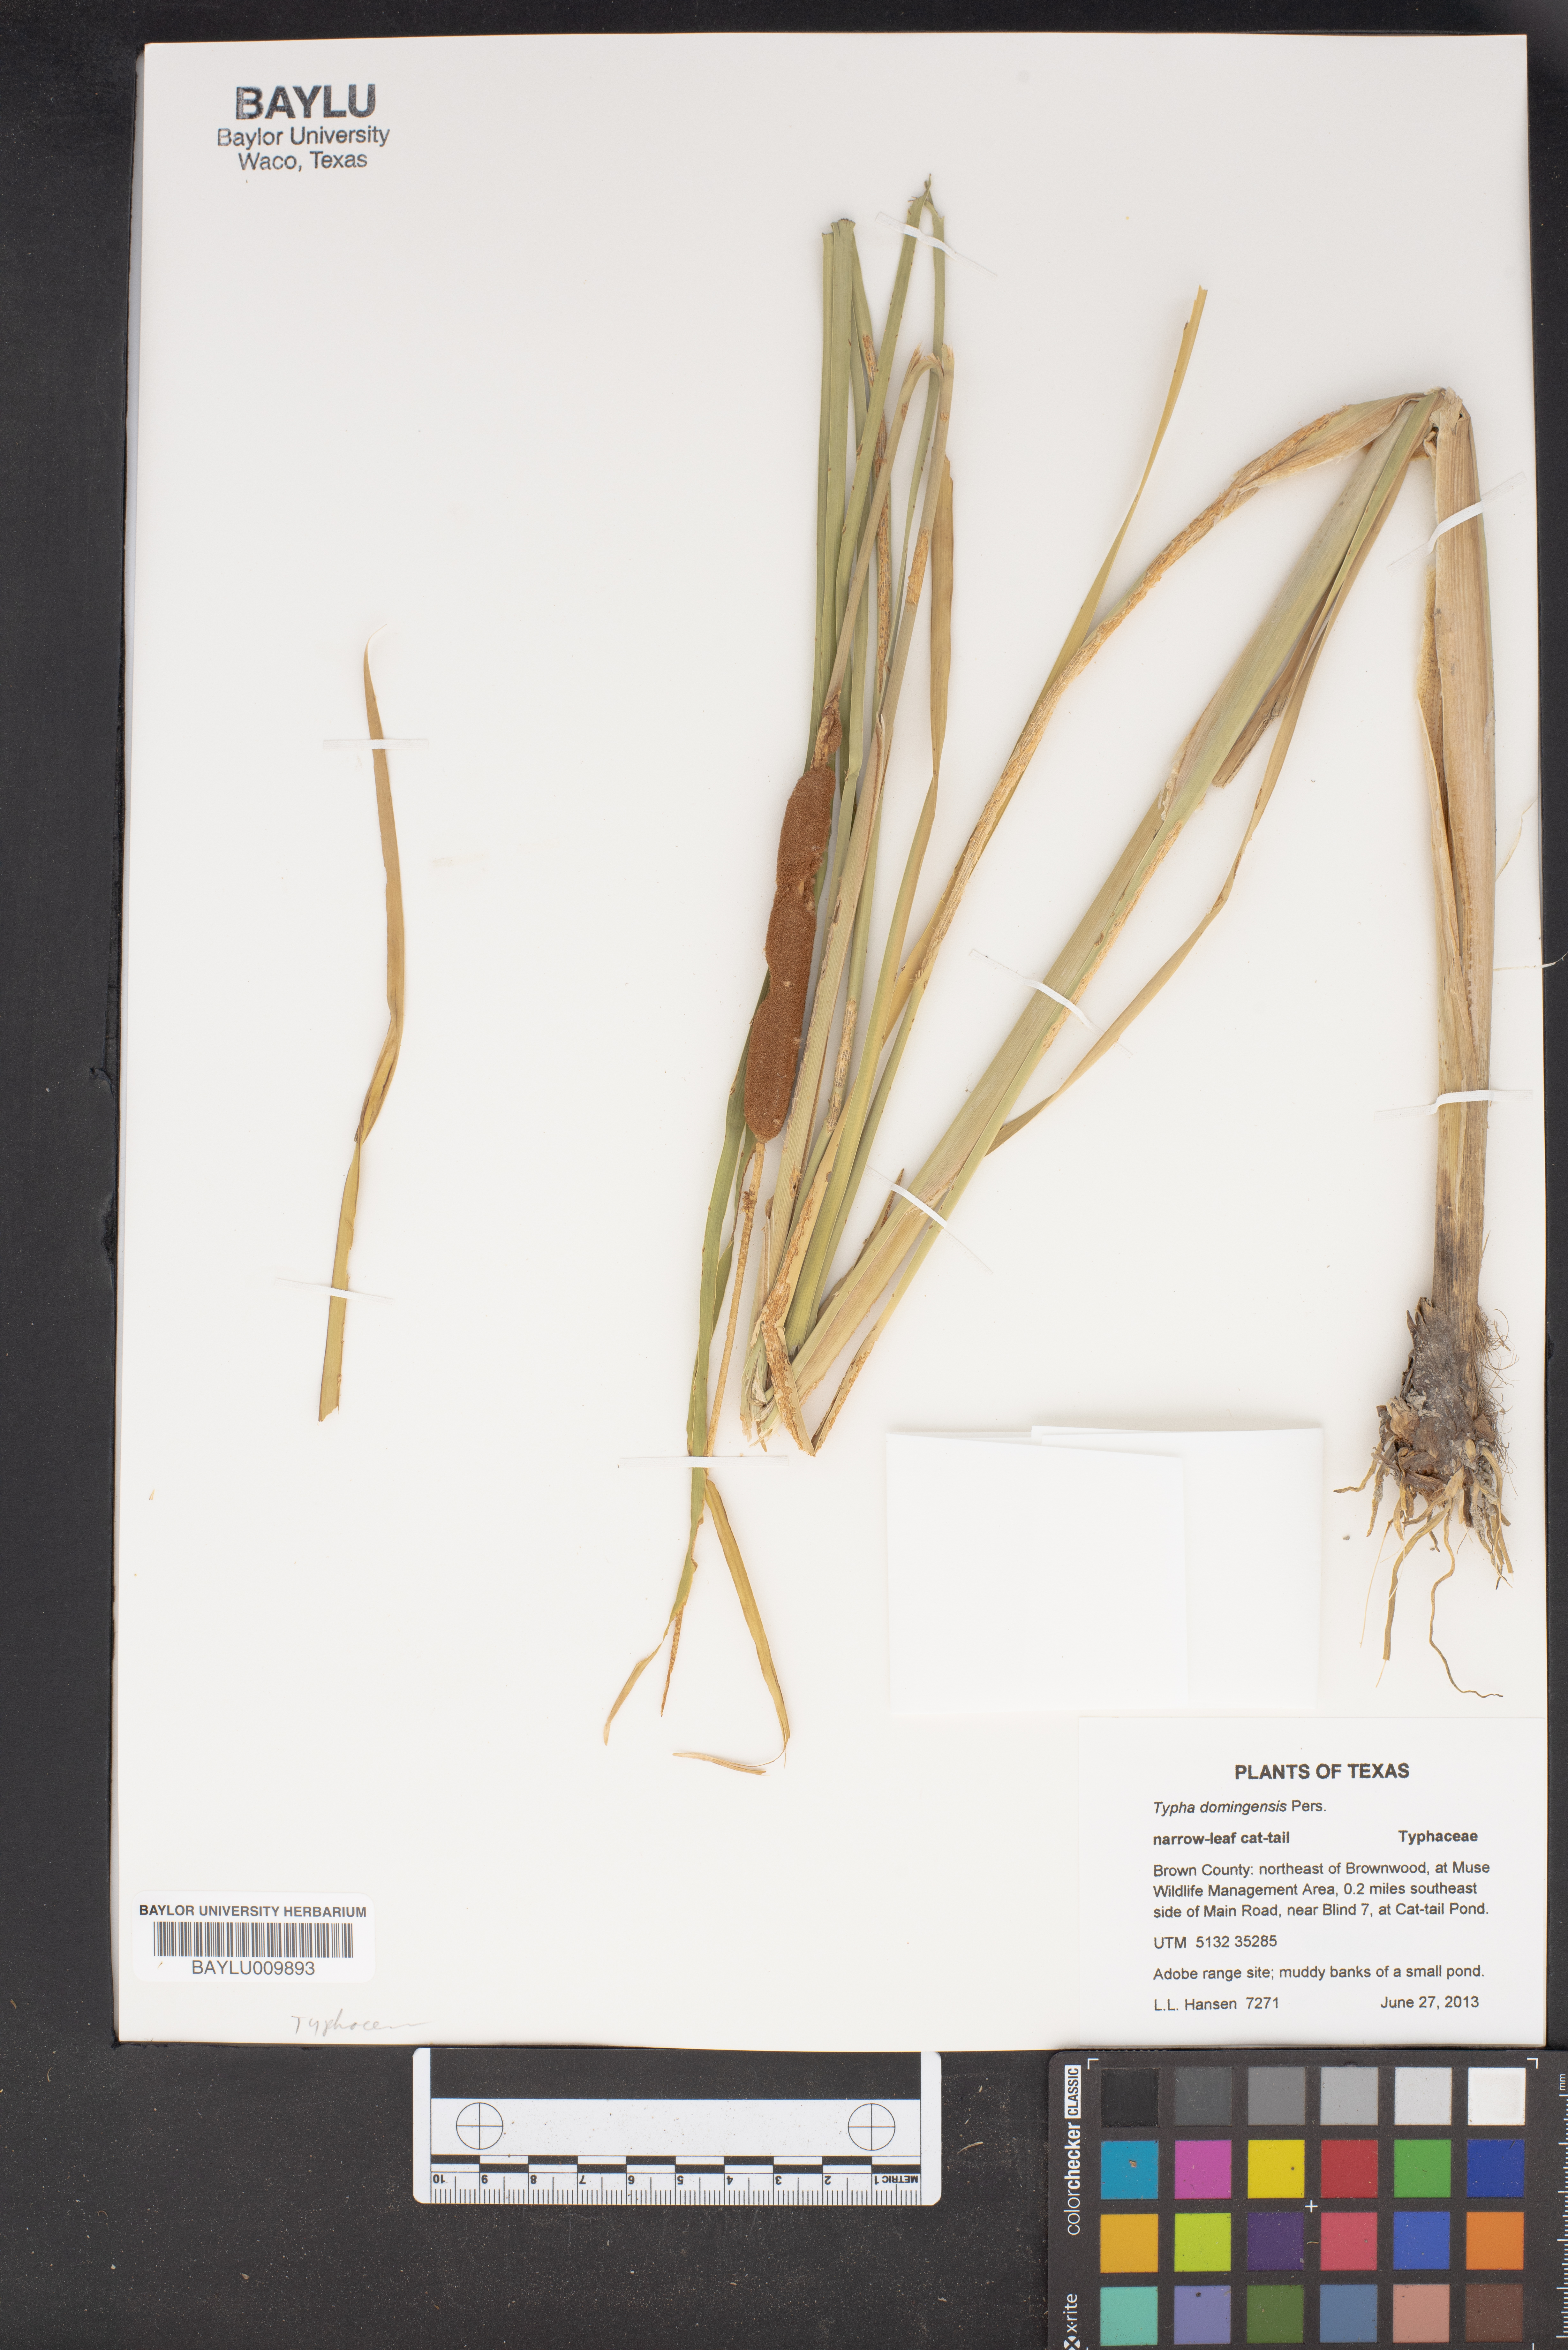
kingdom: Plantae
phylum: Tracheophyta
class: Liliopsida
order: Poales
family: Typhaceae
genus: Typha
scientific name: Typha domingensis
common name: Southern cattail
